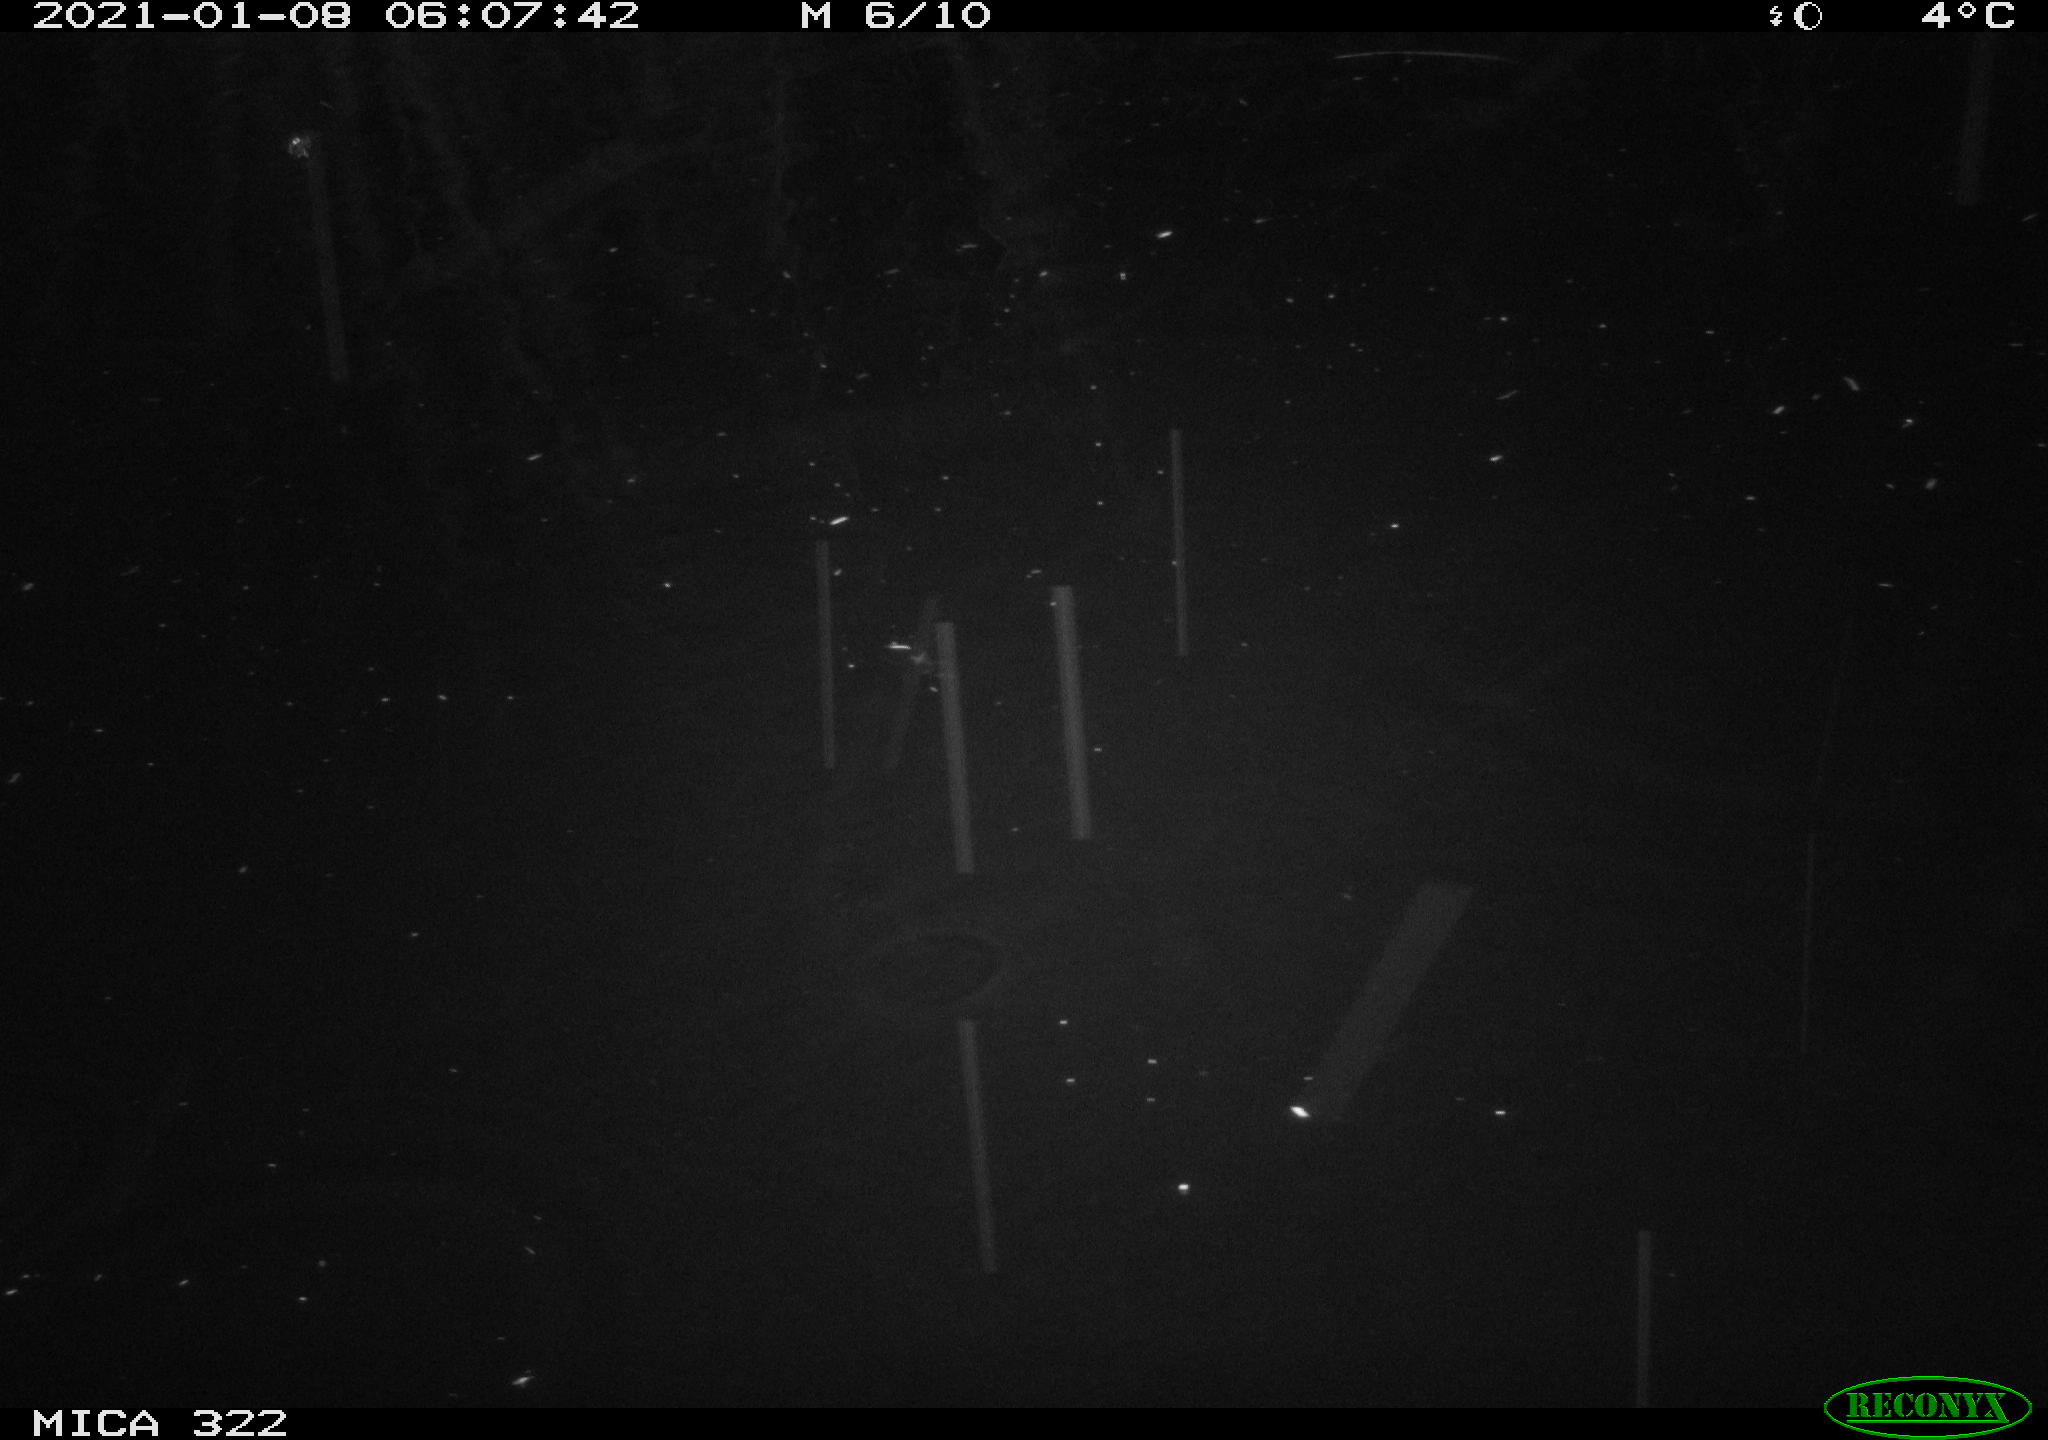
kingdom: Animalia
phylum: Chordata
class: Mammalia
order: Rodentia
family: Muridae
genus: Rattus
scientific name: Rattus norvegicus
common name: Brown rat
